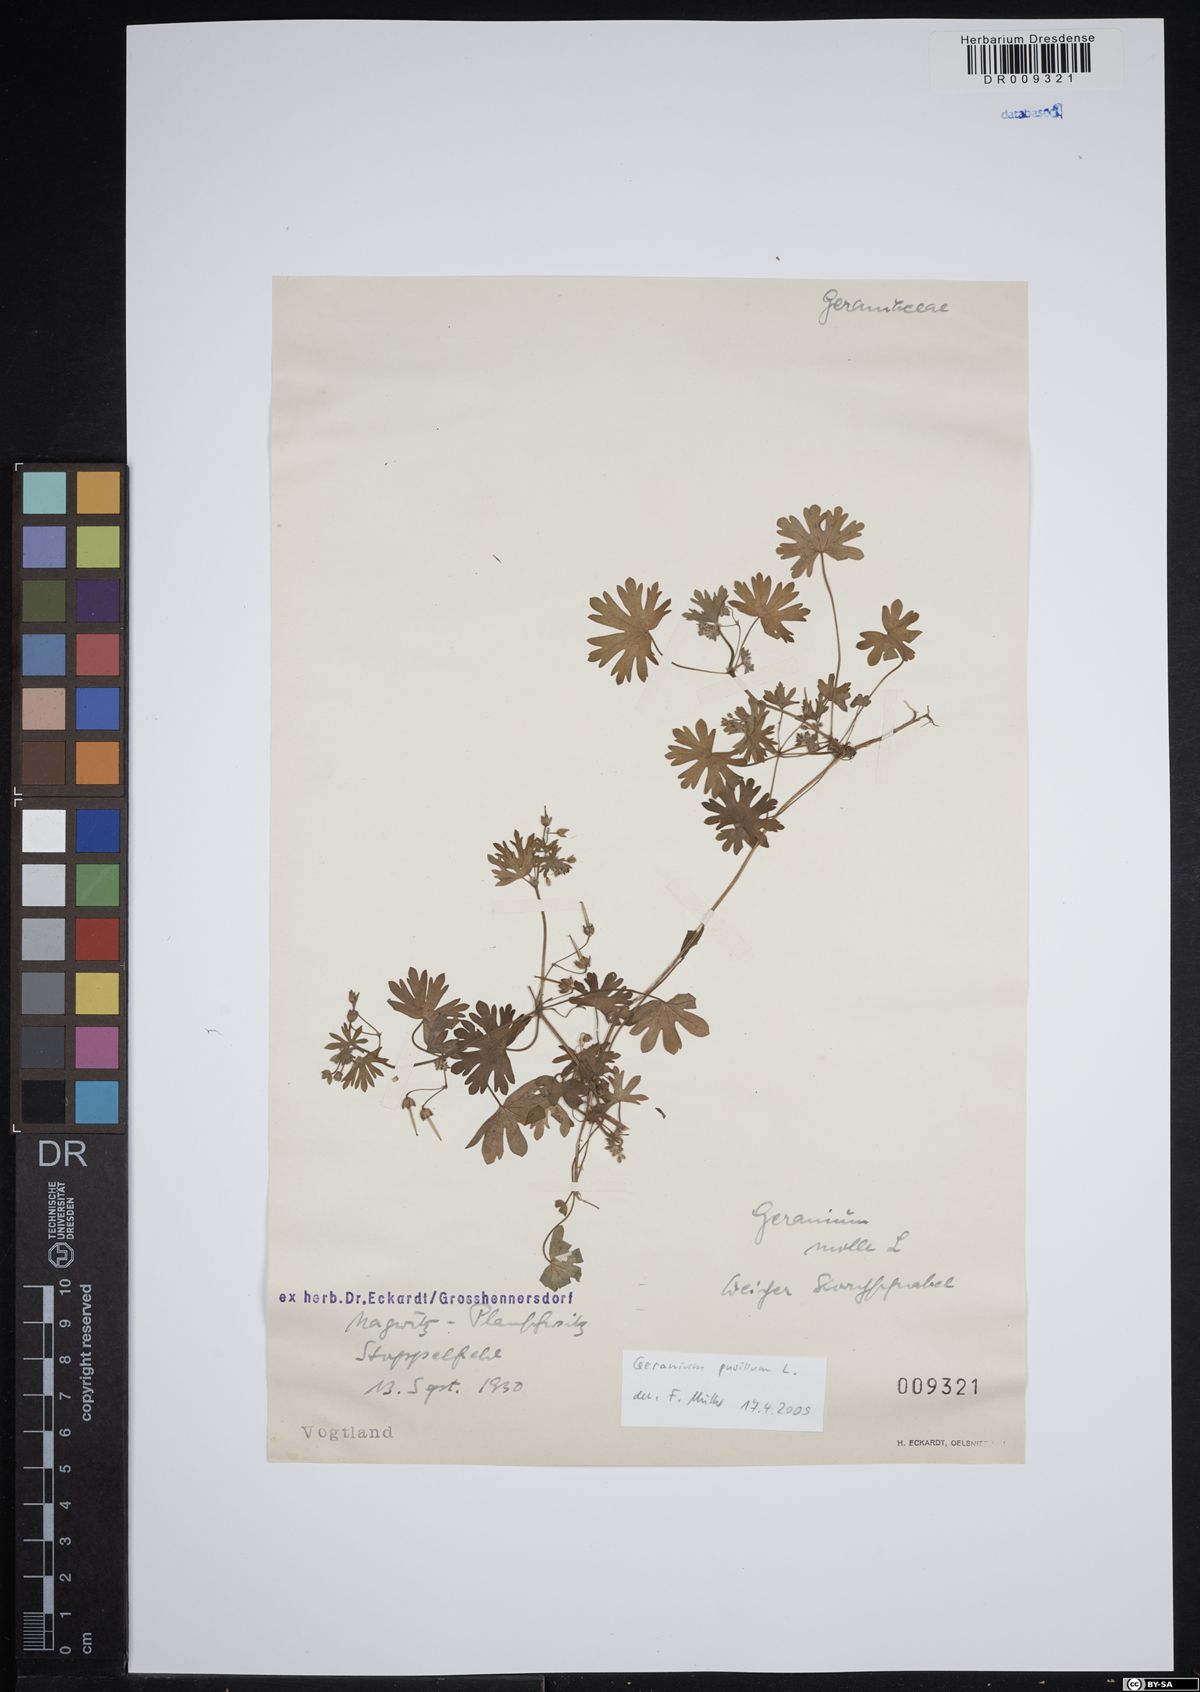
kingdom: Plantae
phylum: Tracheophyta
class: Magnoliopsida
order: Geraniales
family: Geraniaceae
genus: Geranium
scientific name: Geranium molle
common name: Dove's-foot crane's-bill
